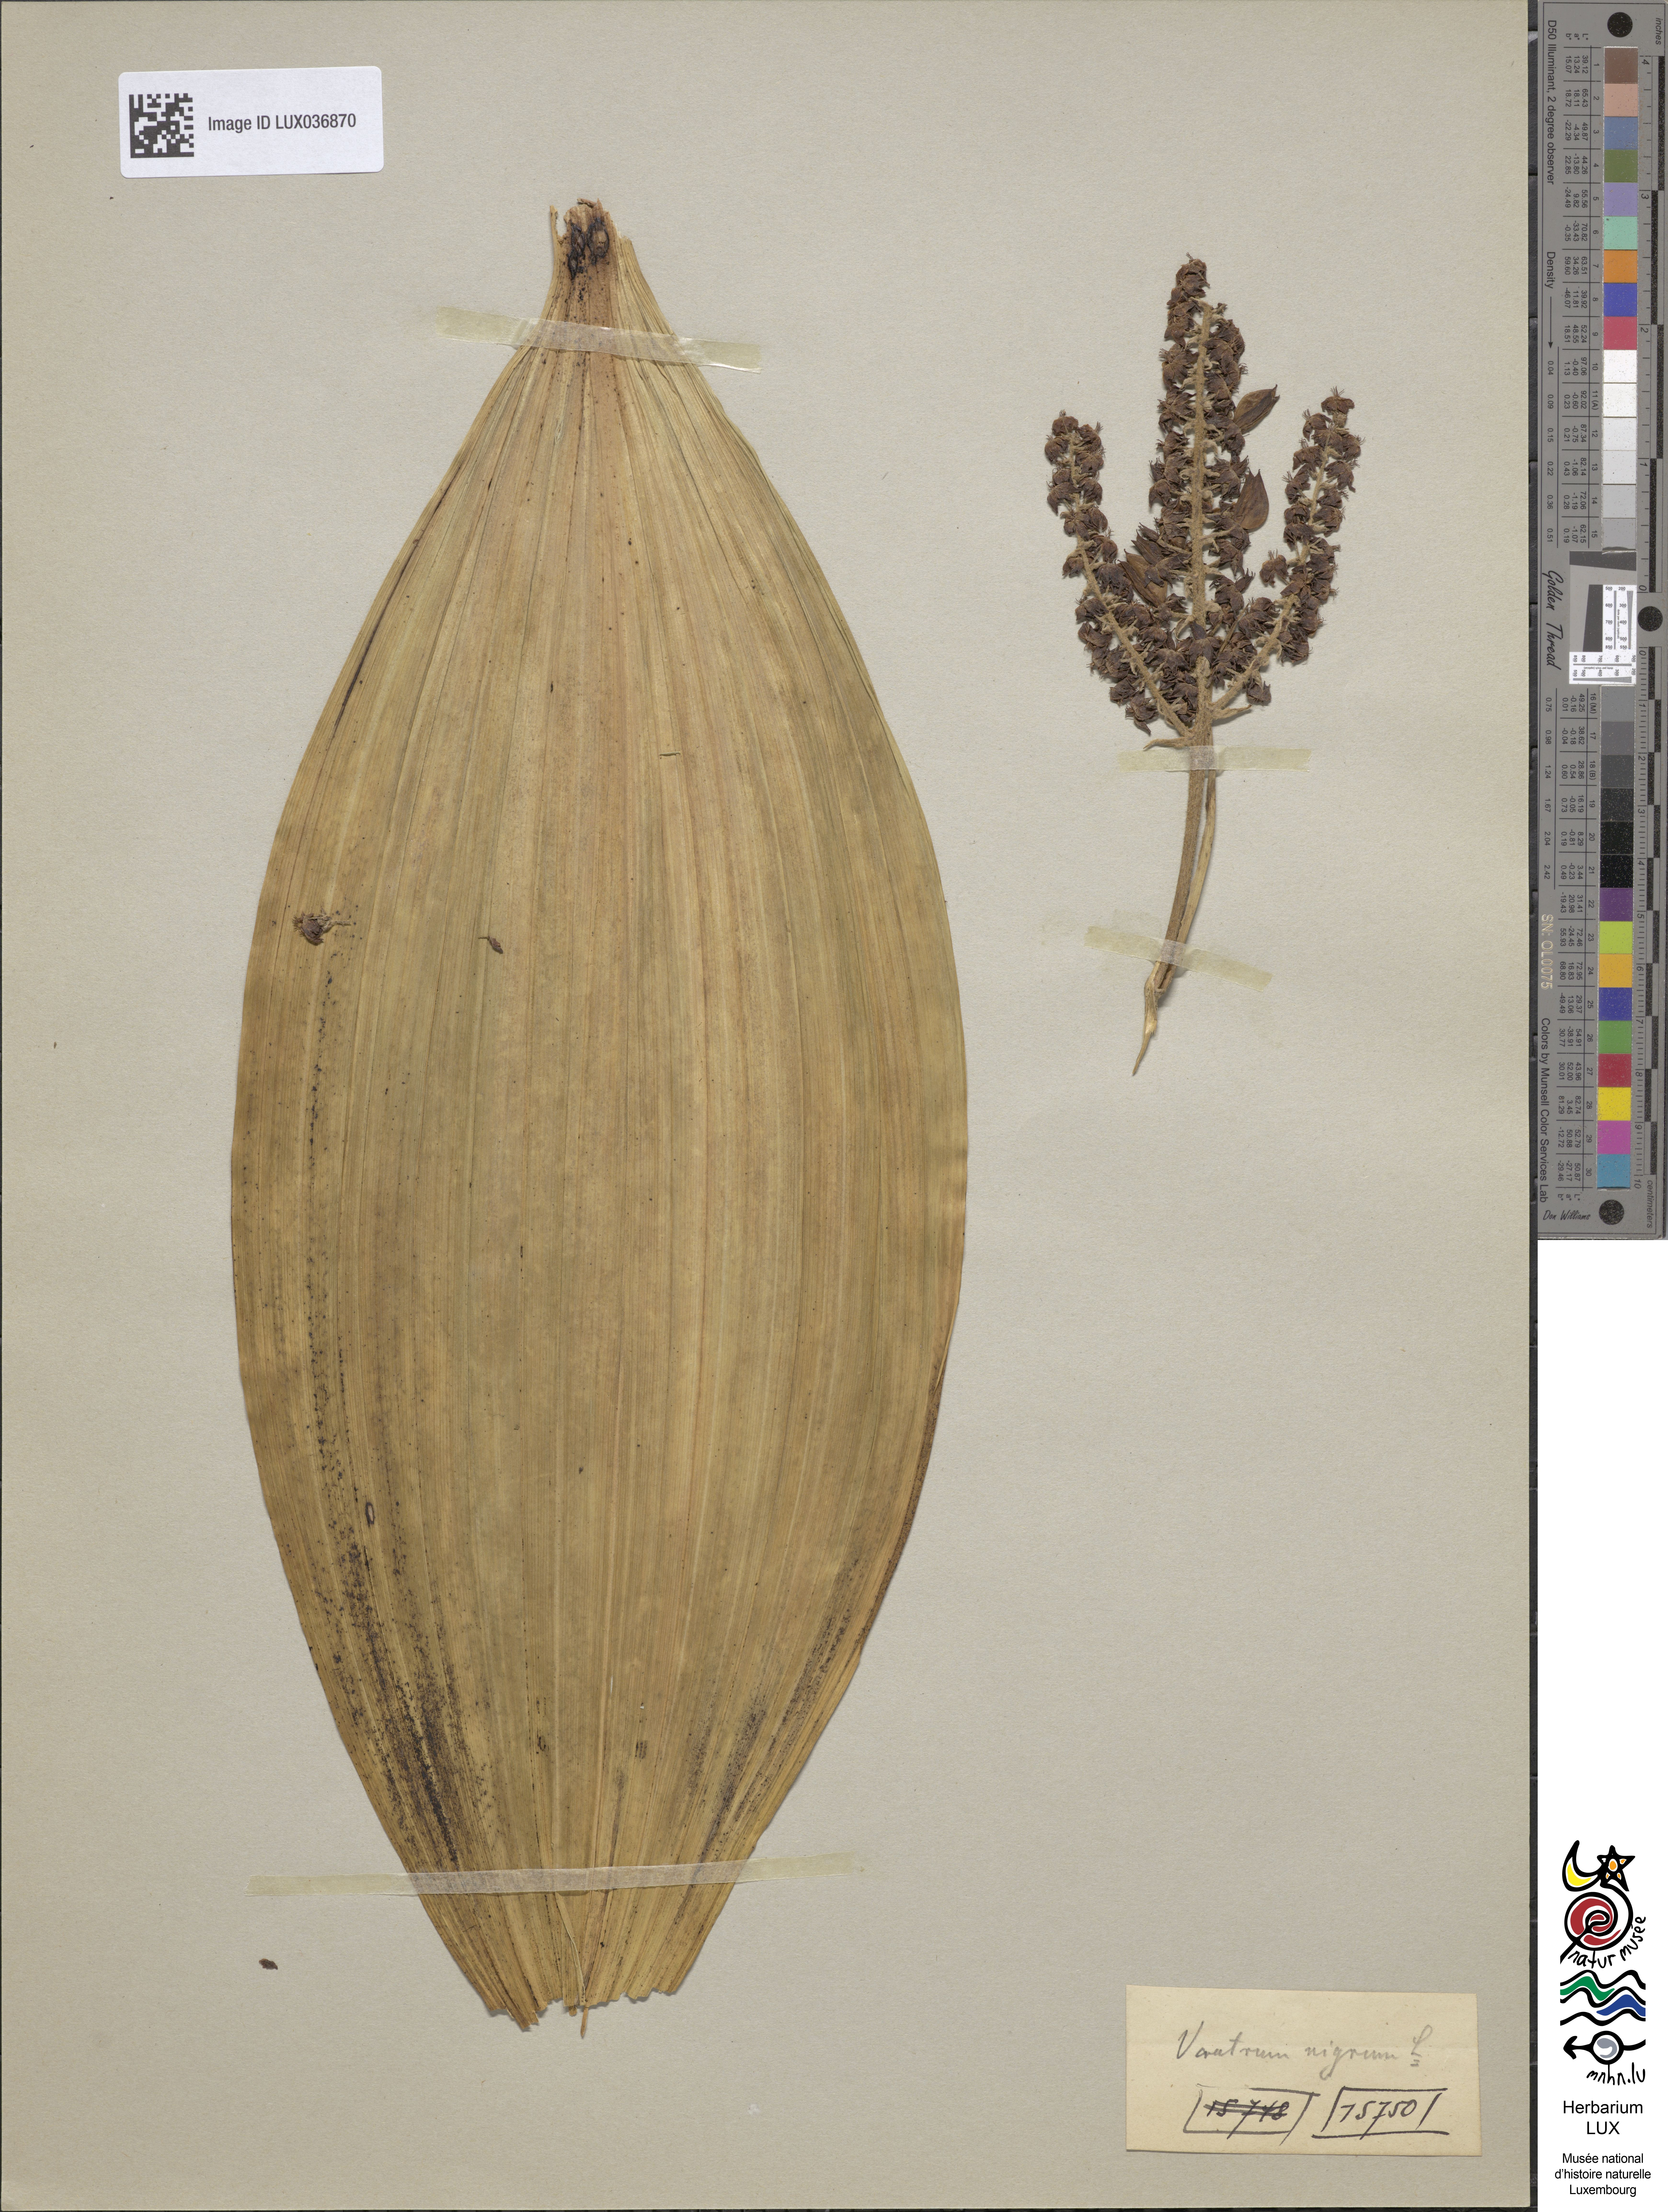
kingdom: Plantae
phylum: Tracheophyta
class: Liliopsida
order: Liliales
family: Melanthiaceae
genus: Veratrum
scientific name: Veratrum nigrum
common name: Black veratrum
